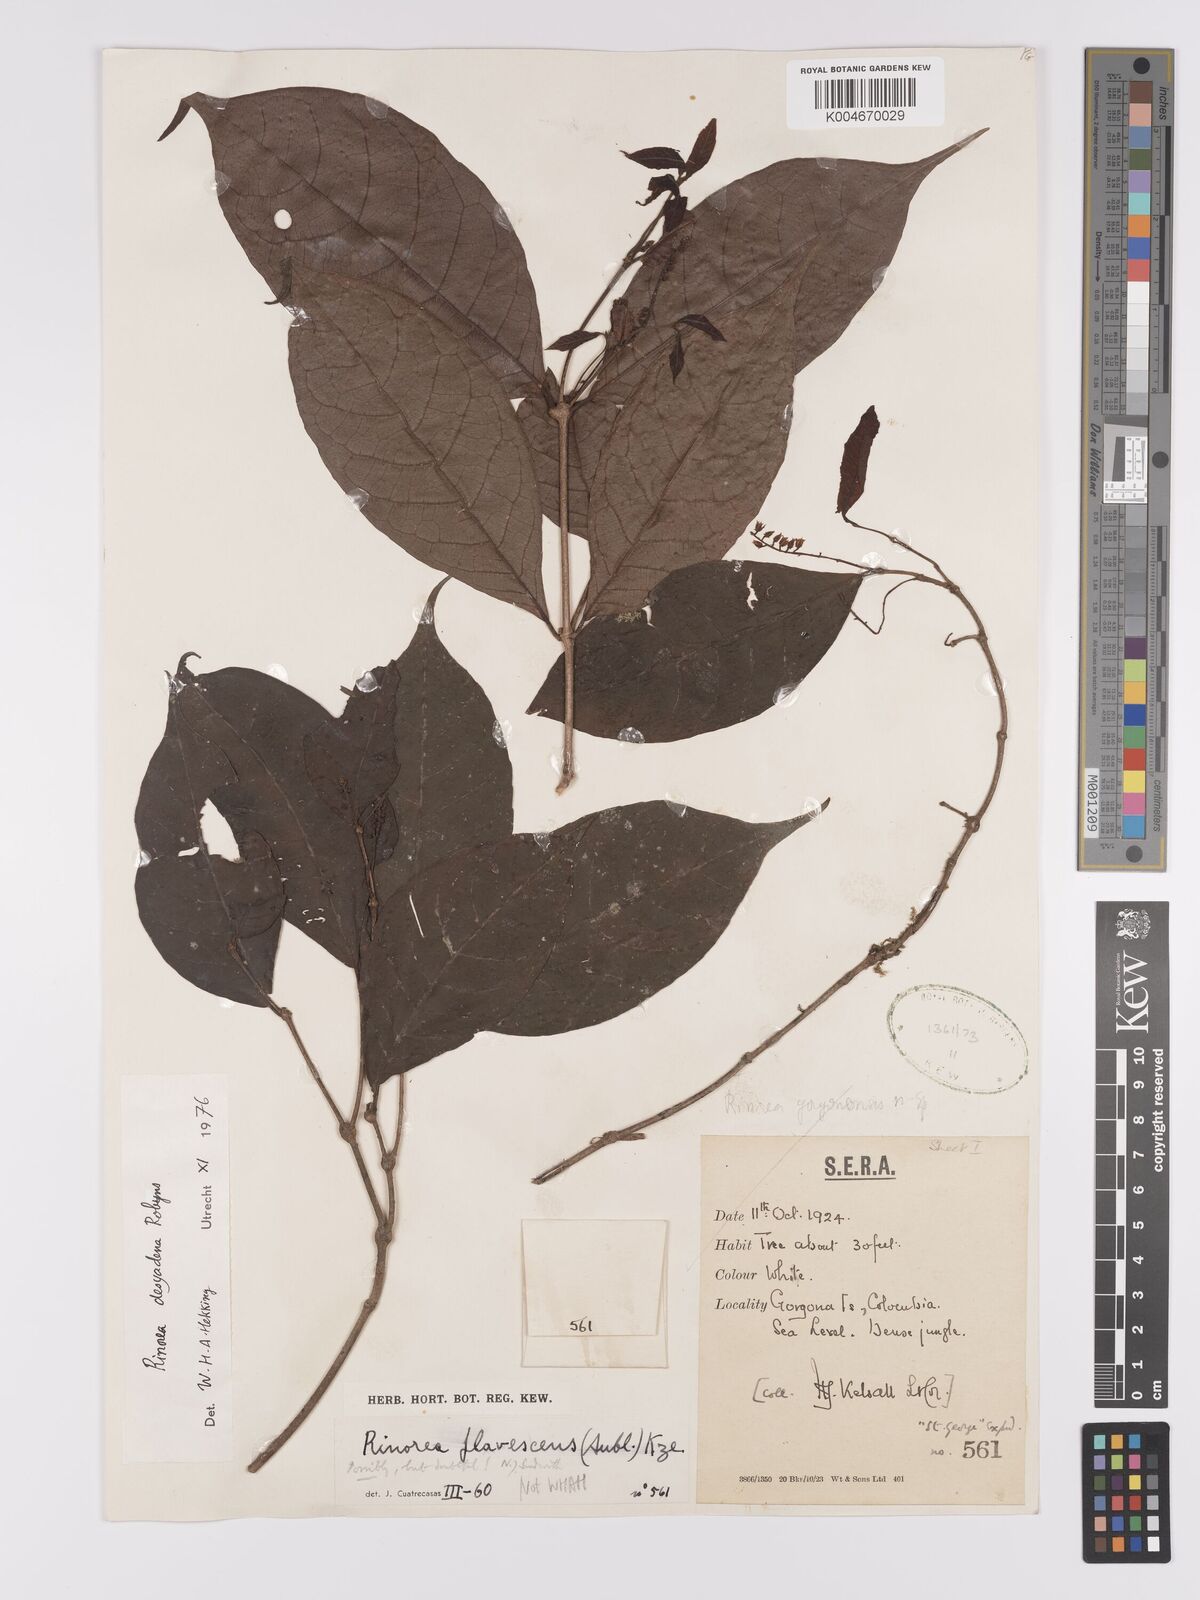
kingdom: Plantae
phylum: Tracheophyta
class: Magnoliopsida
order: Malpighiales
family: Violaceae
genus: Rinorea
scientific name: Rinorea dasyadena
